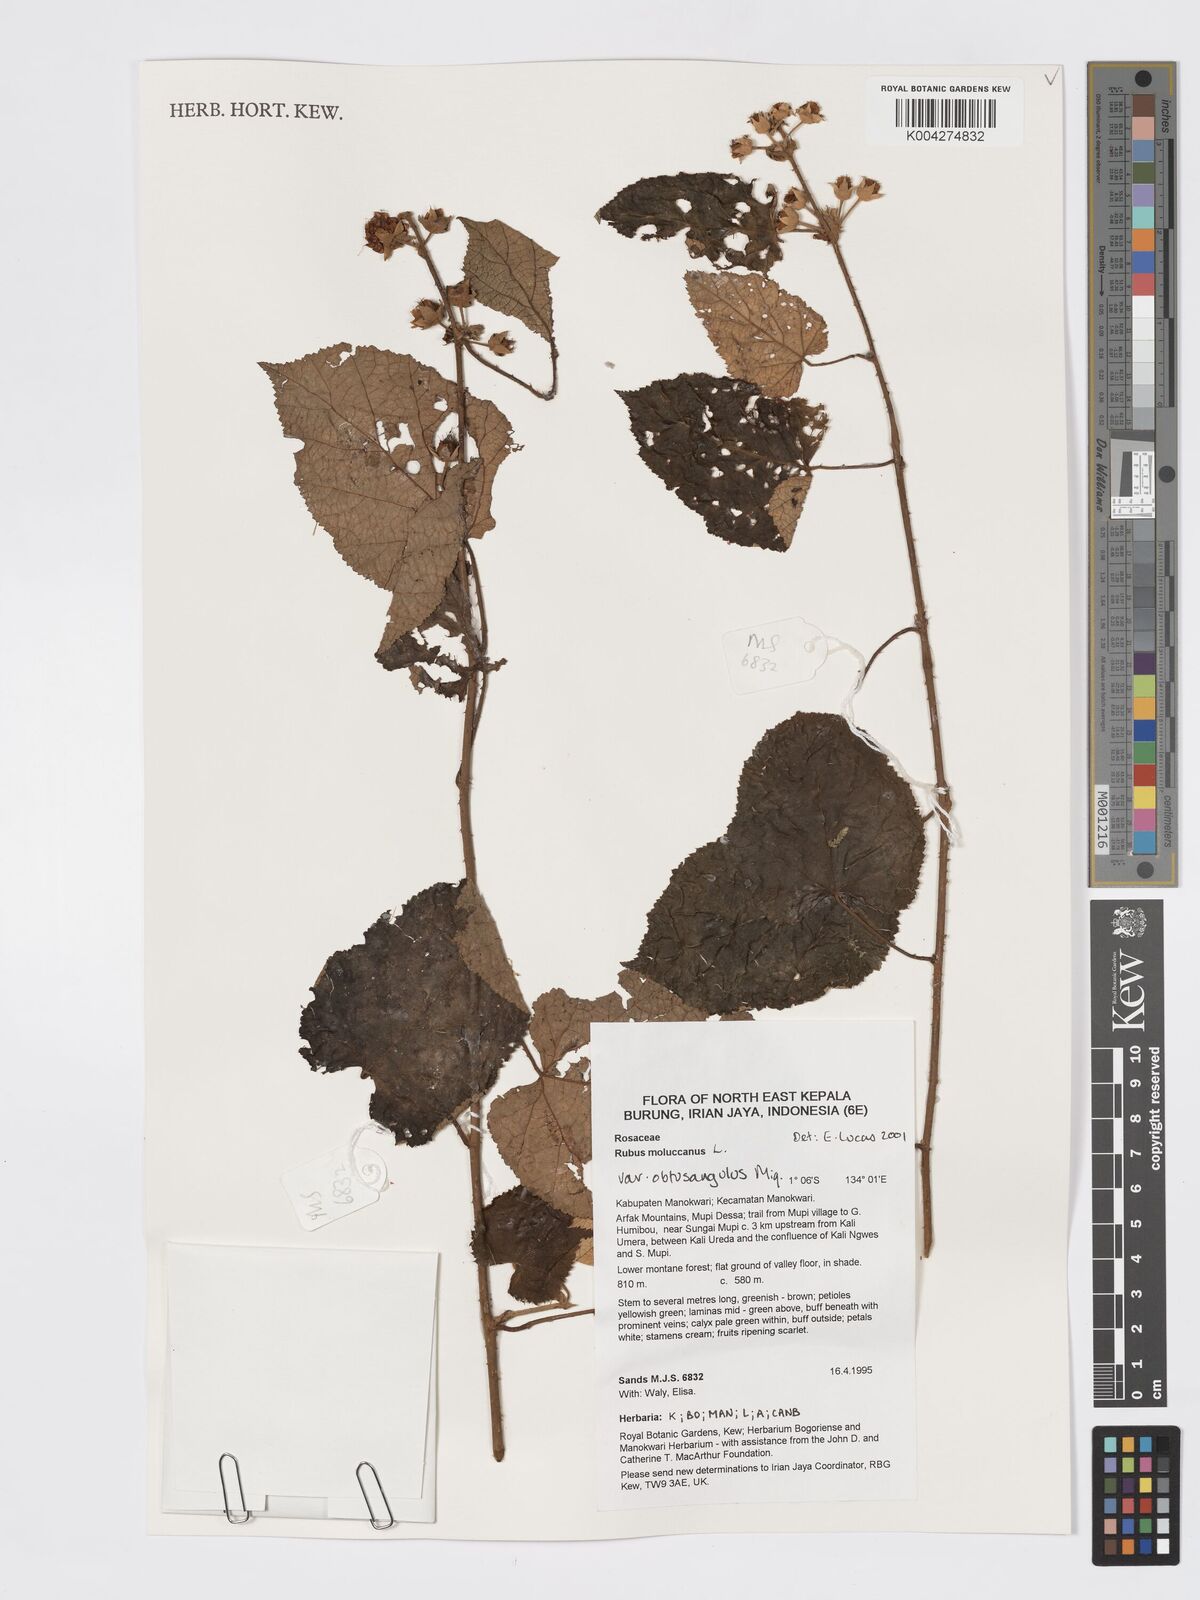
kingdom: Plantae
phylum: Tracheophyta
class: Magnoliopsida
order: Rosales
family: Rosaceae
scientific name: Rosaceae
